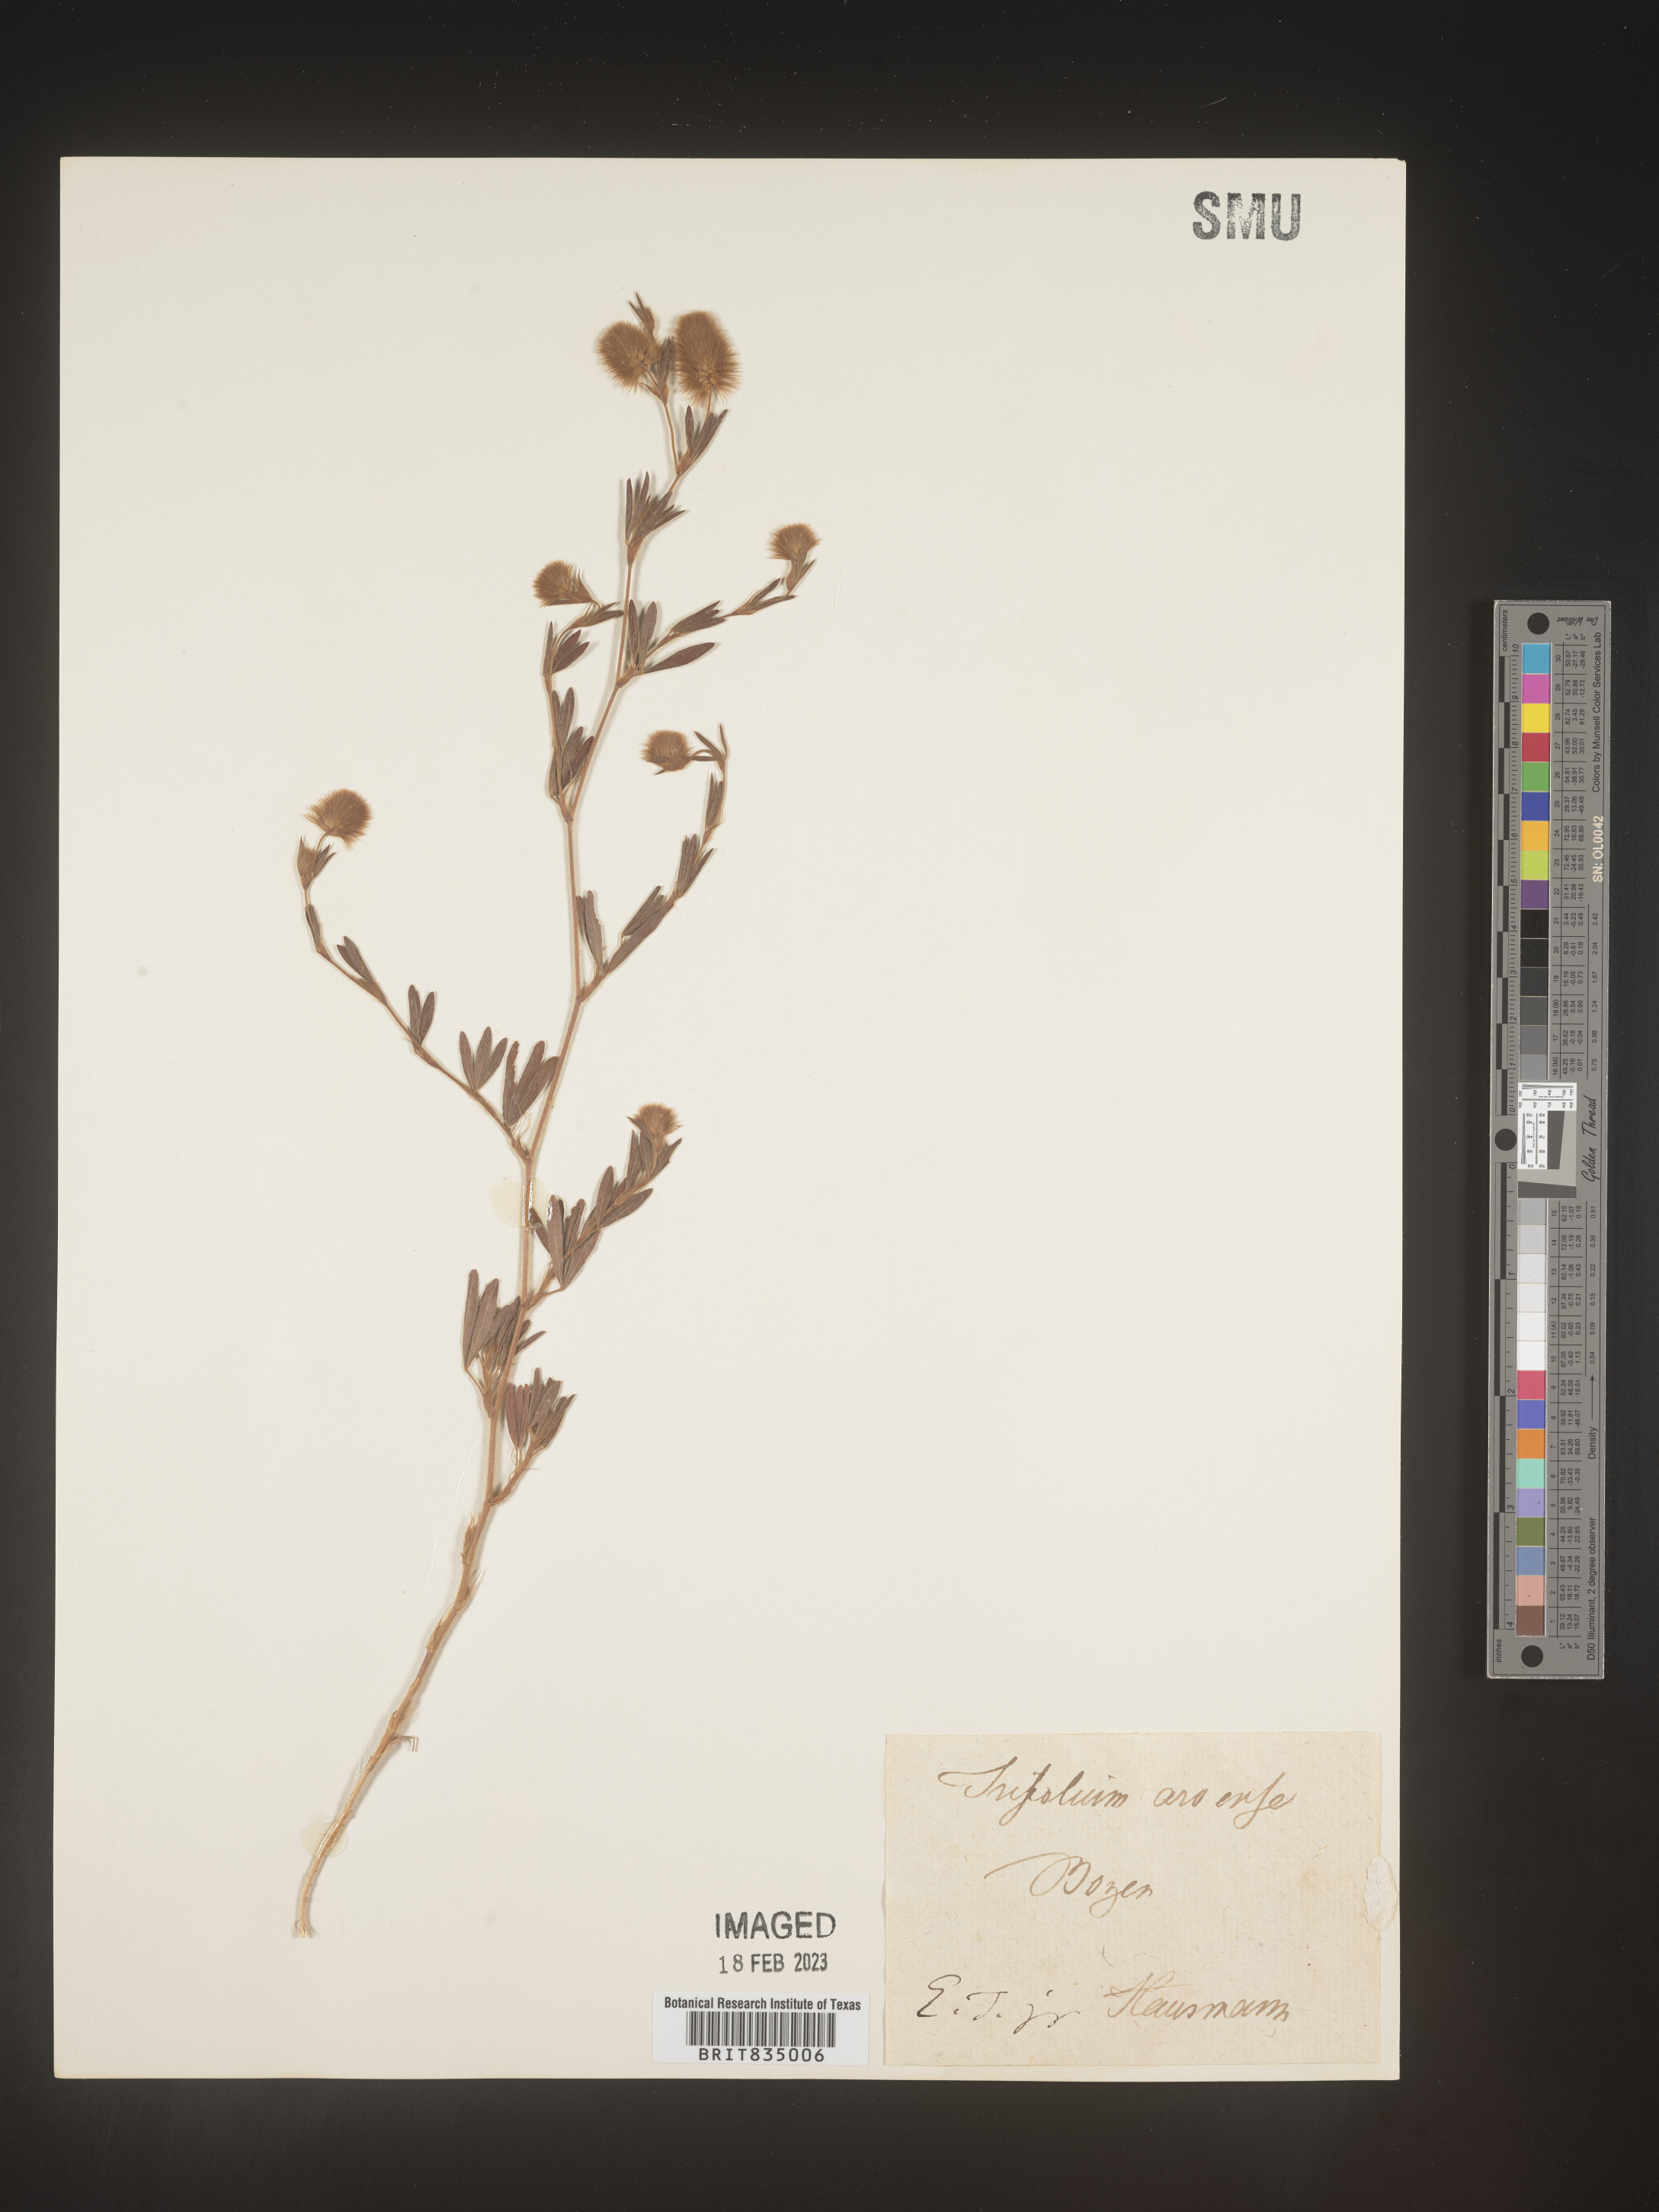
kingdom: Plantae
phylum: Tracheophyta
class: Magnoliopsida
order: Fabales
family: Fabaceae
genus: Trifolium
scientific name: Trifolium
